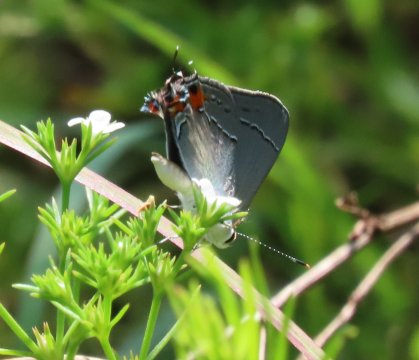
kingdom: Animalia
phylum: Arthropoda
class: Insecta
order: Lepidoptera
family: Lycaenidae
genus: Strymon
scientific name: Strymon melinus
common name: Gray Hairstreak
